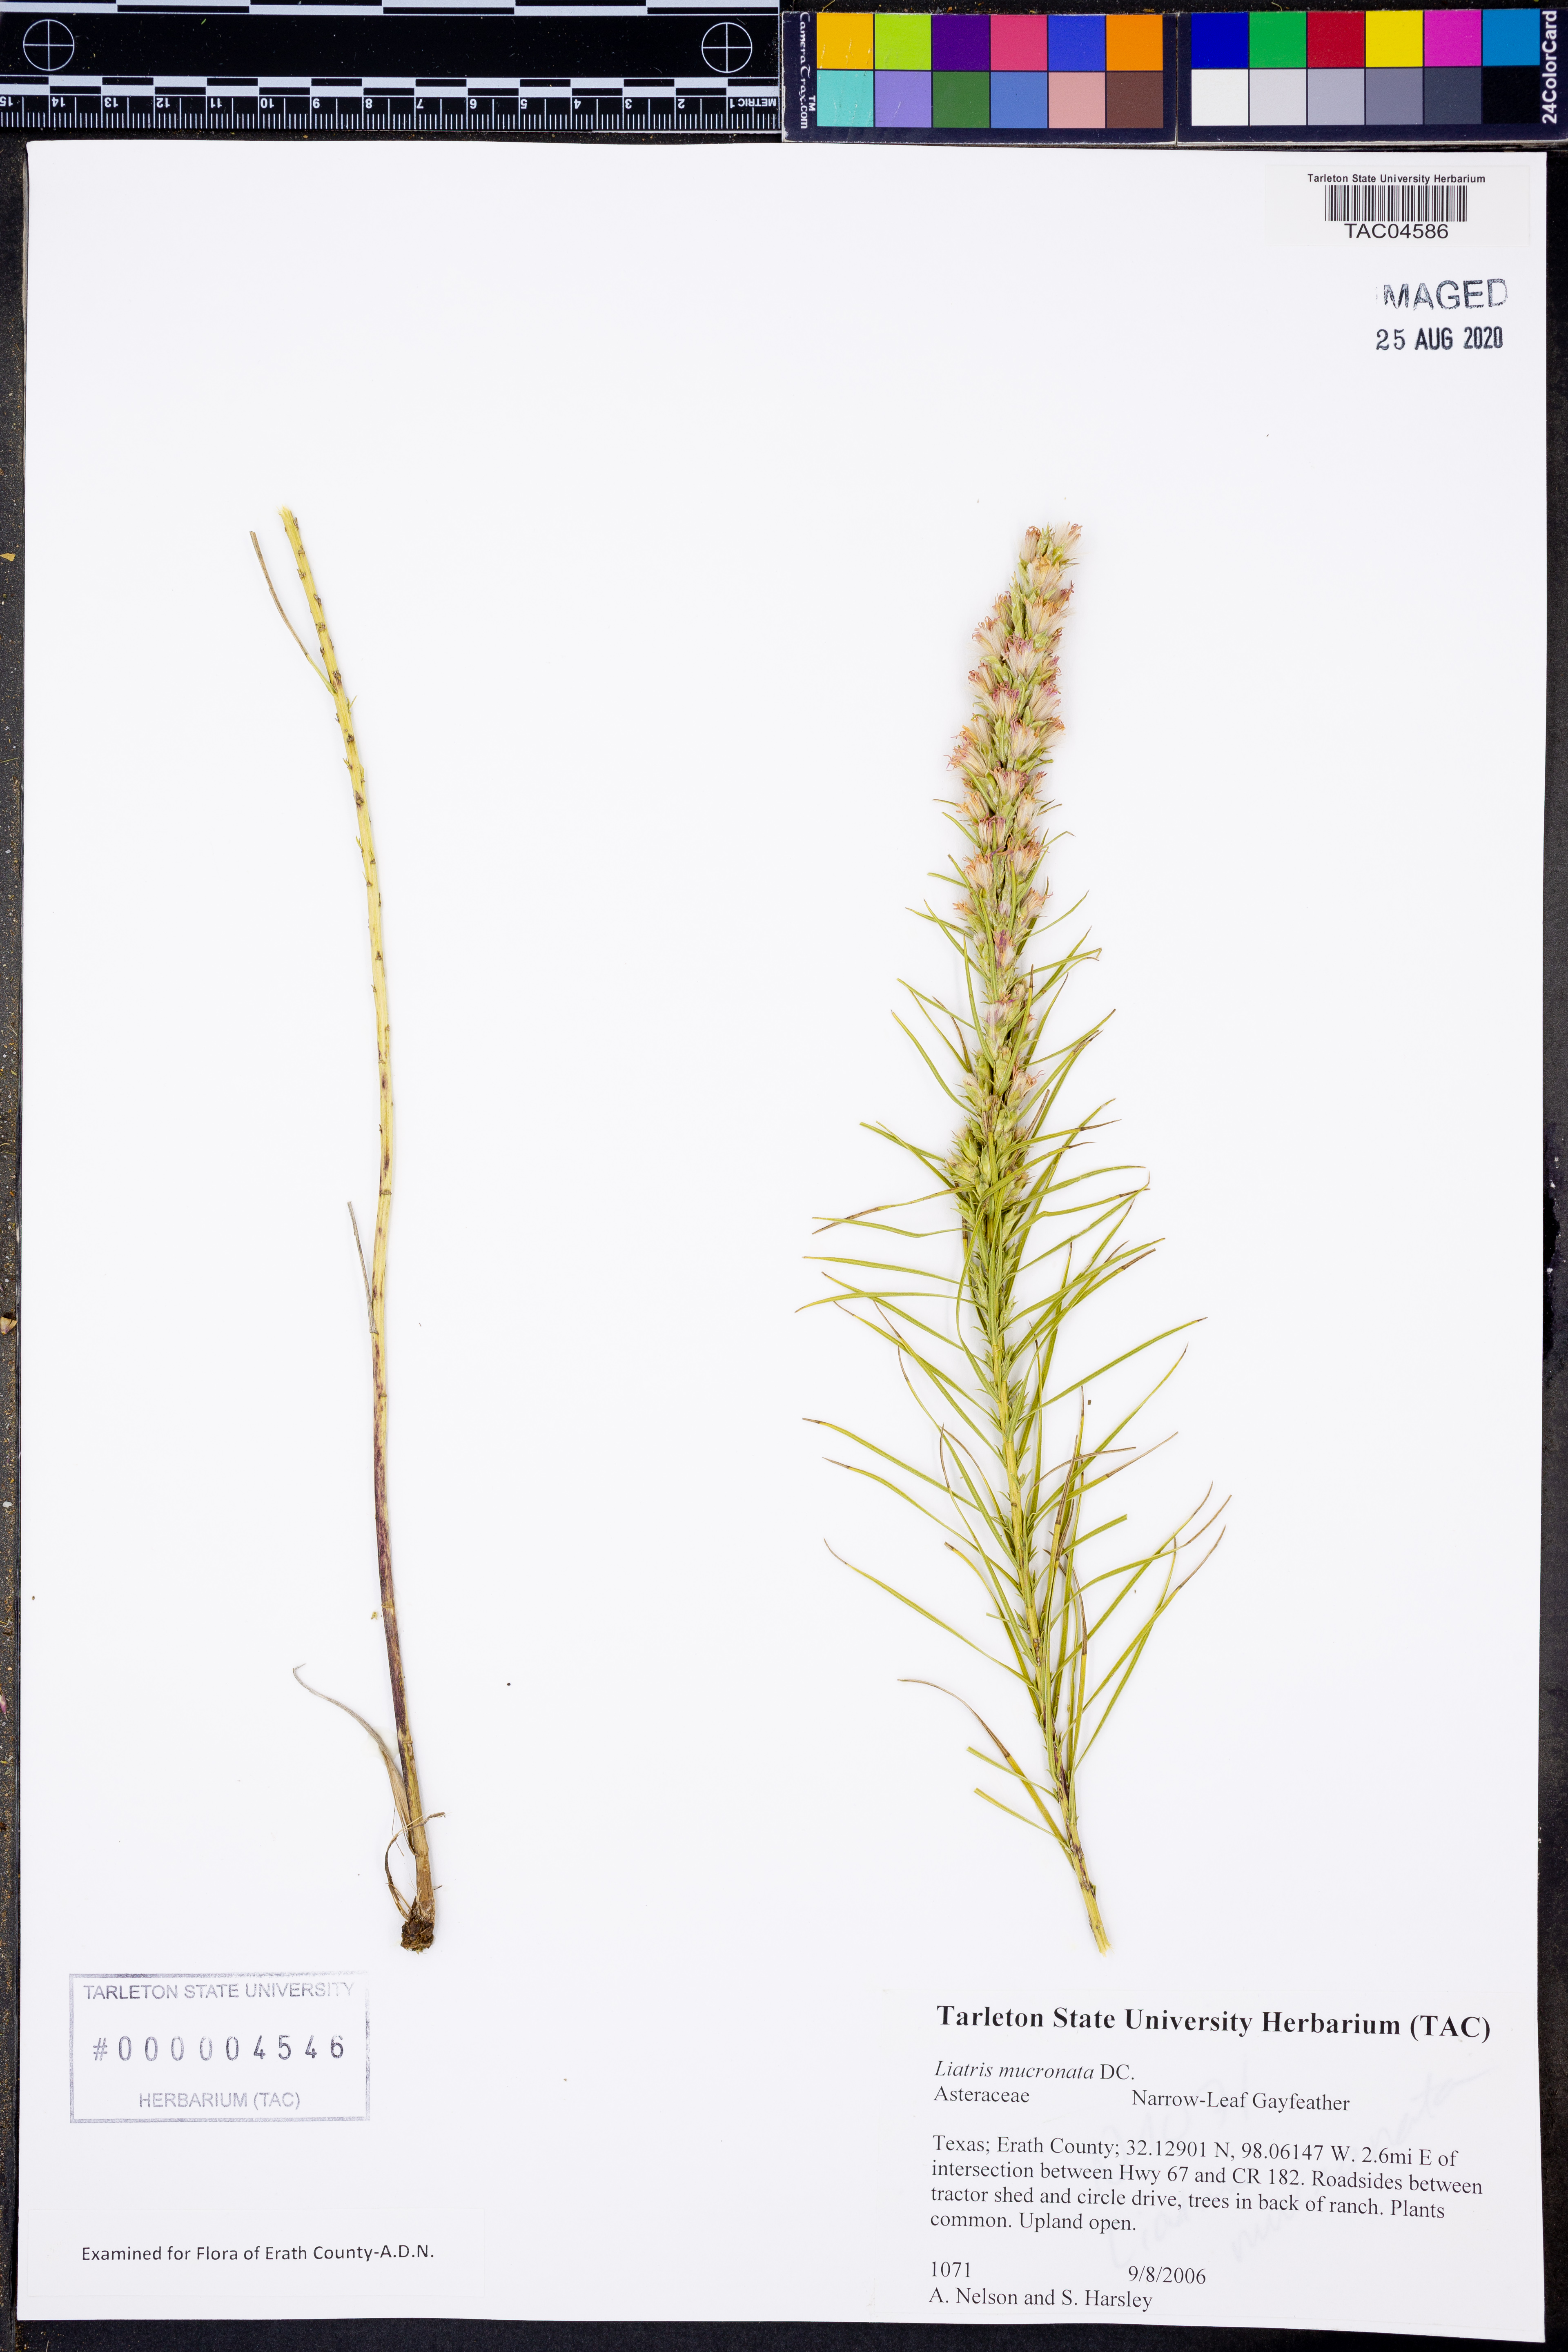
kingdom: Plantae
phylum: Tracheophyta
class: Magnoliopsida
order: Asterales
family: Asteraceae
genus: Liatris
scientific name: Liatris mucronata
